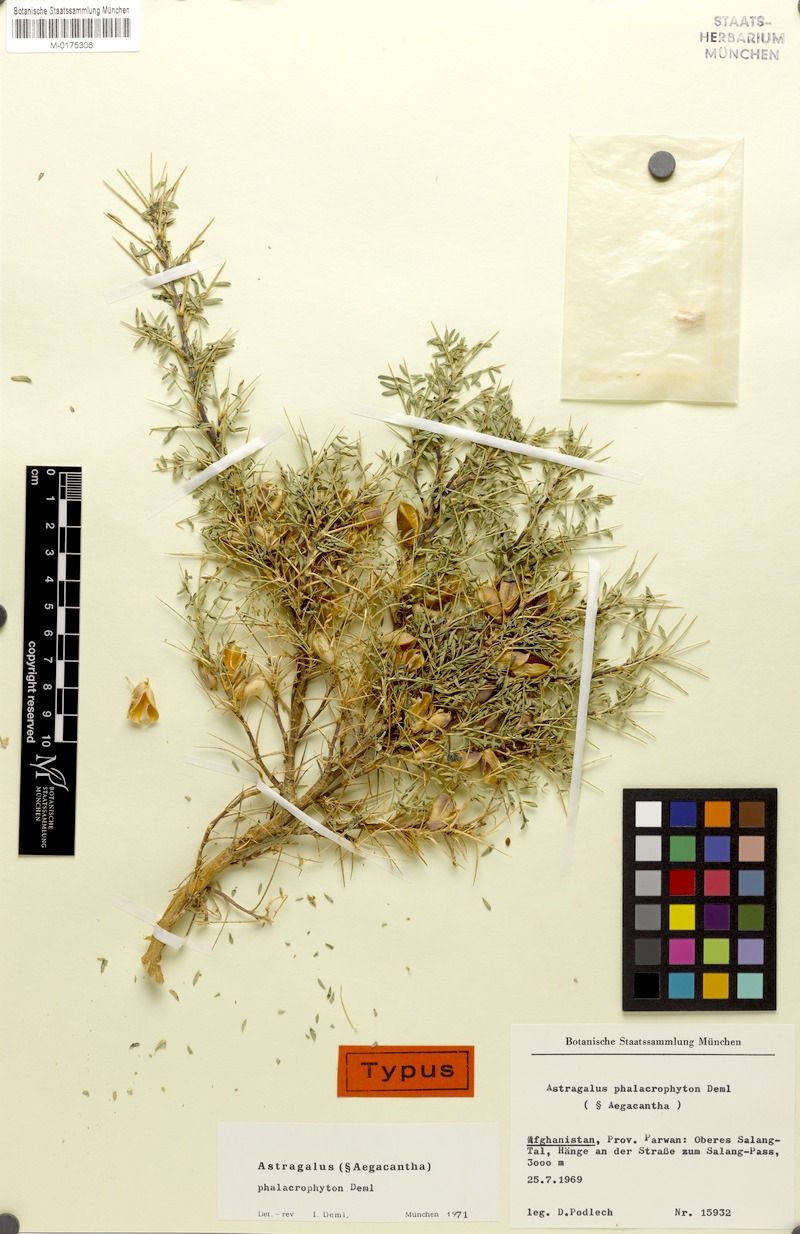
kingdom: Plantae
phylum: Tracheophyta
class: Magnoliopsida
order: Fabales
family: Fabaceae
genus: Astragalus
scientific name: Astragalus phalacrophyton
